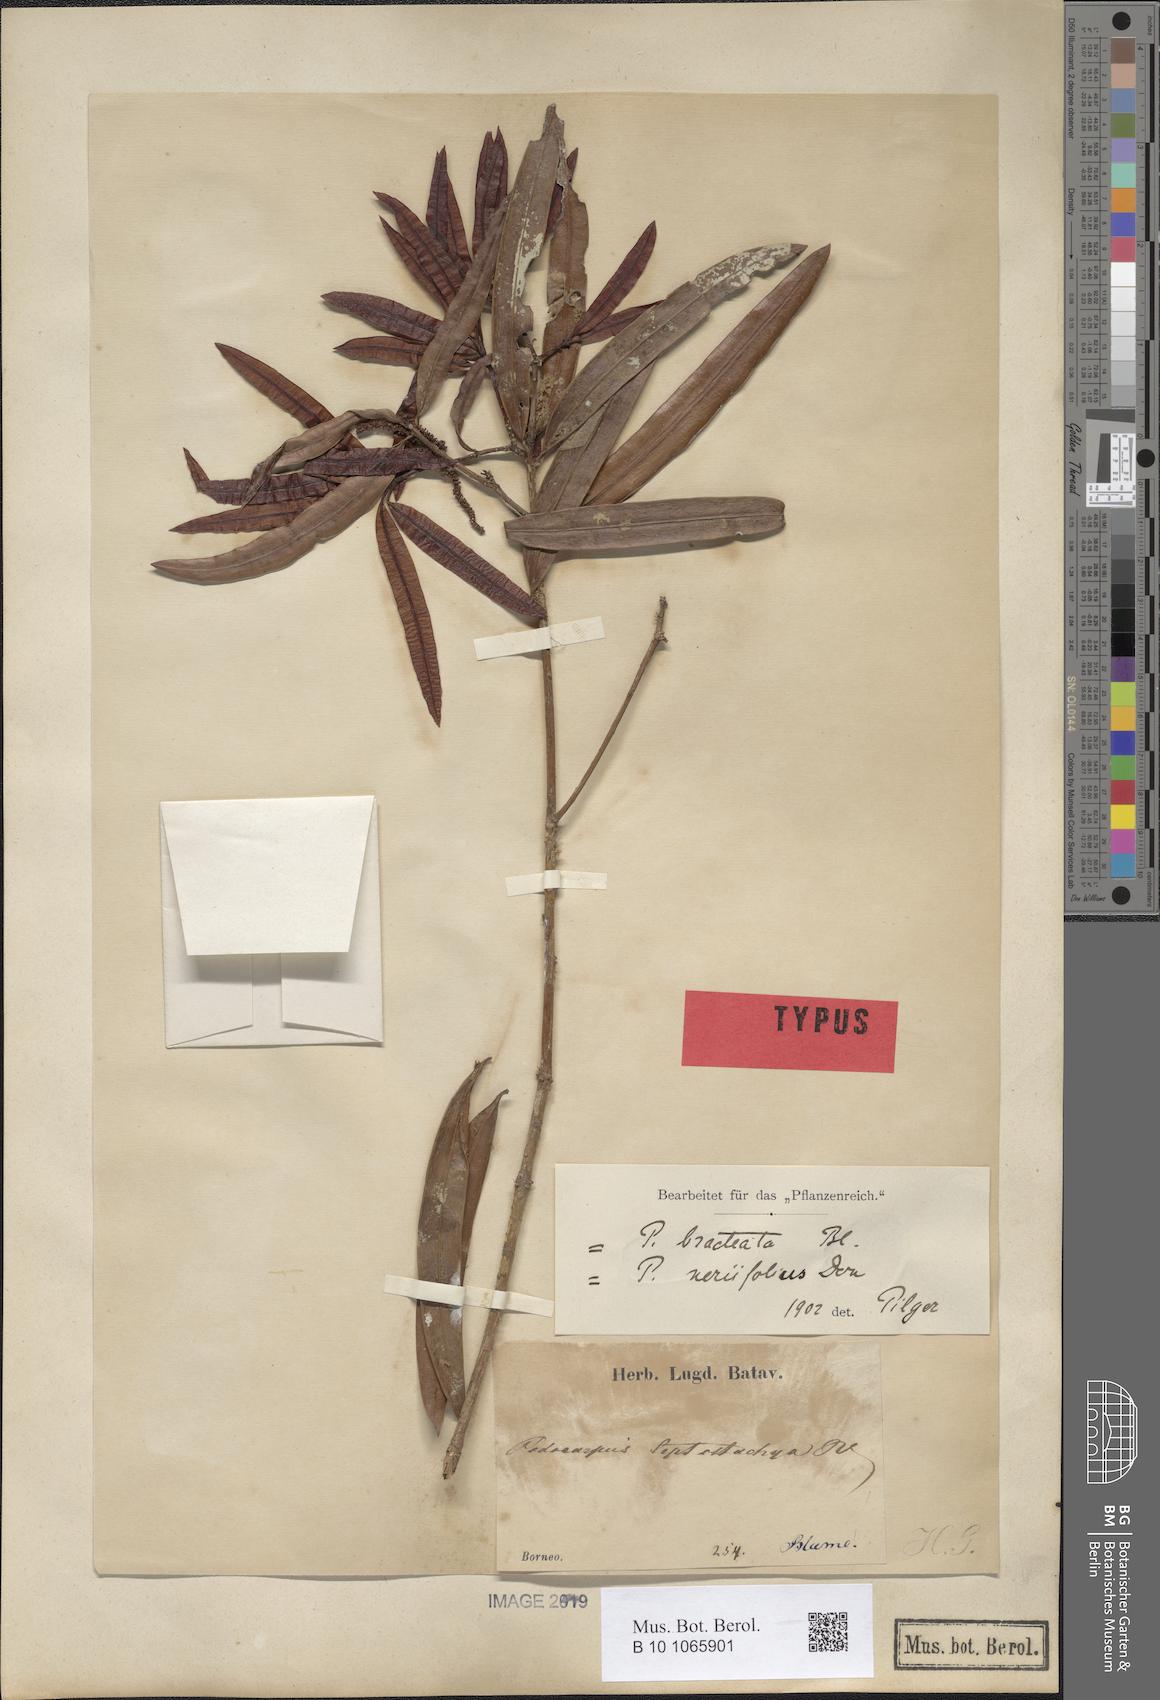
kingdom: Plantae
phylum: Tracheophyta
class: Pinopsida
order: Pinales
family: Podocarpaceae
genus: Podocarpus
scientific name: Podocarpus neriifolius
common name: Brown pine
